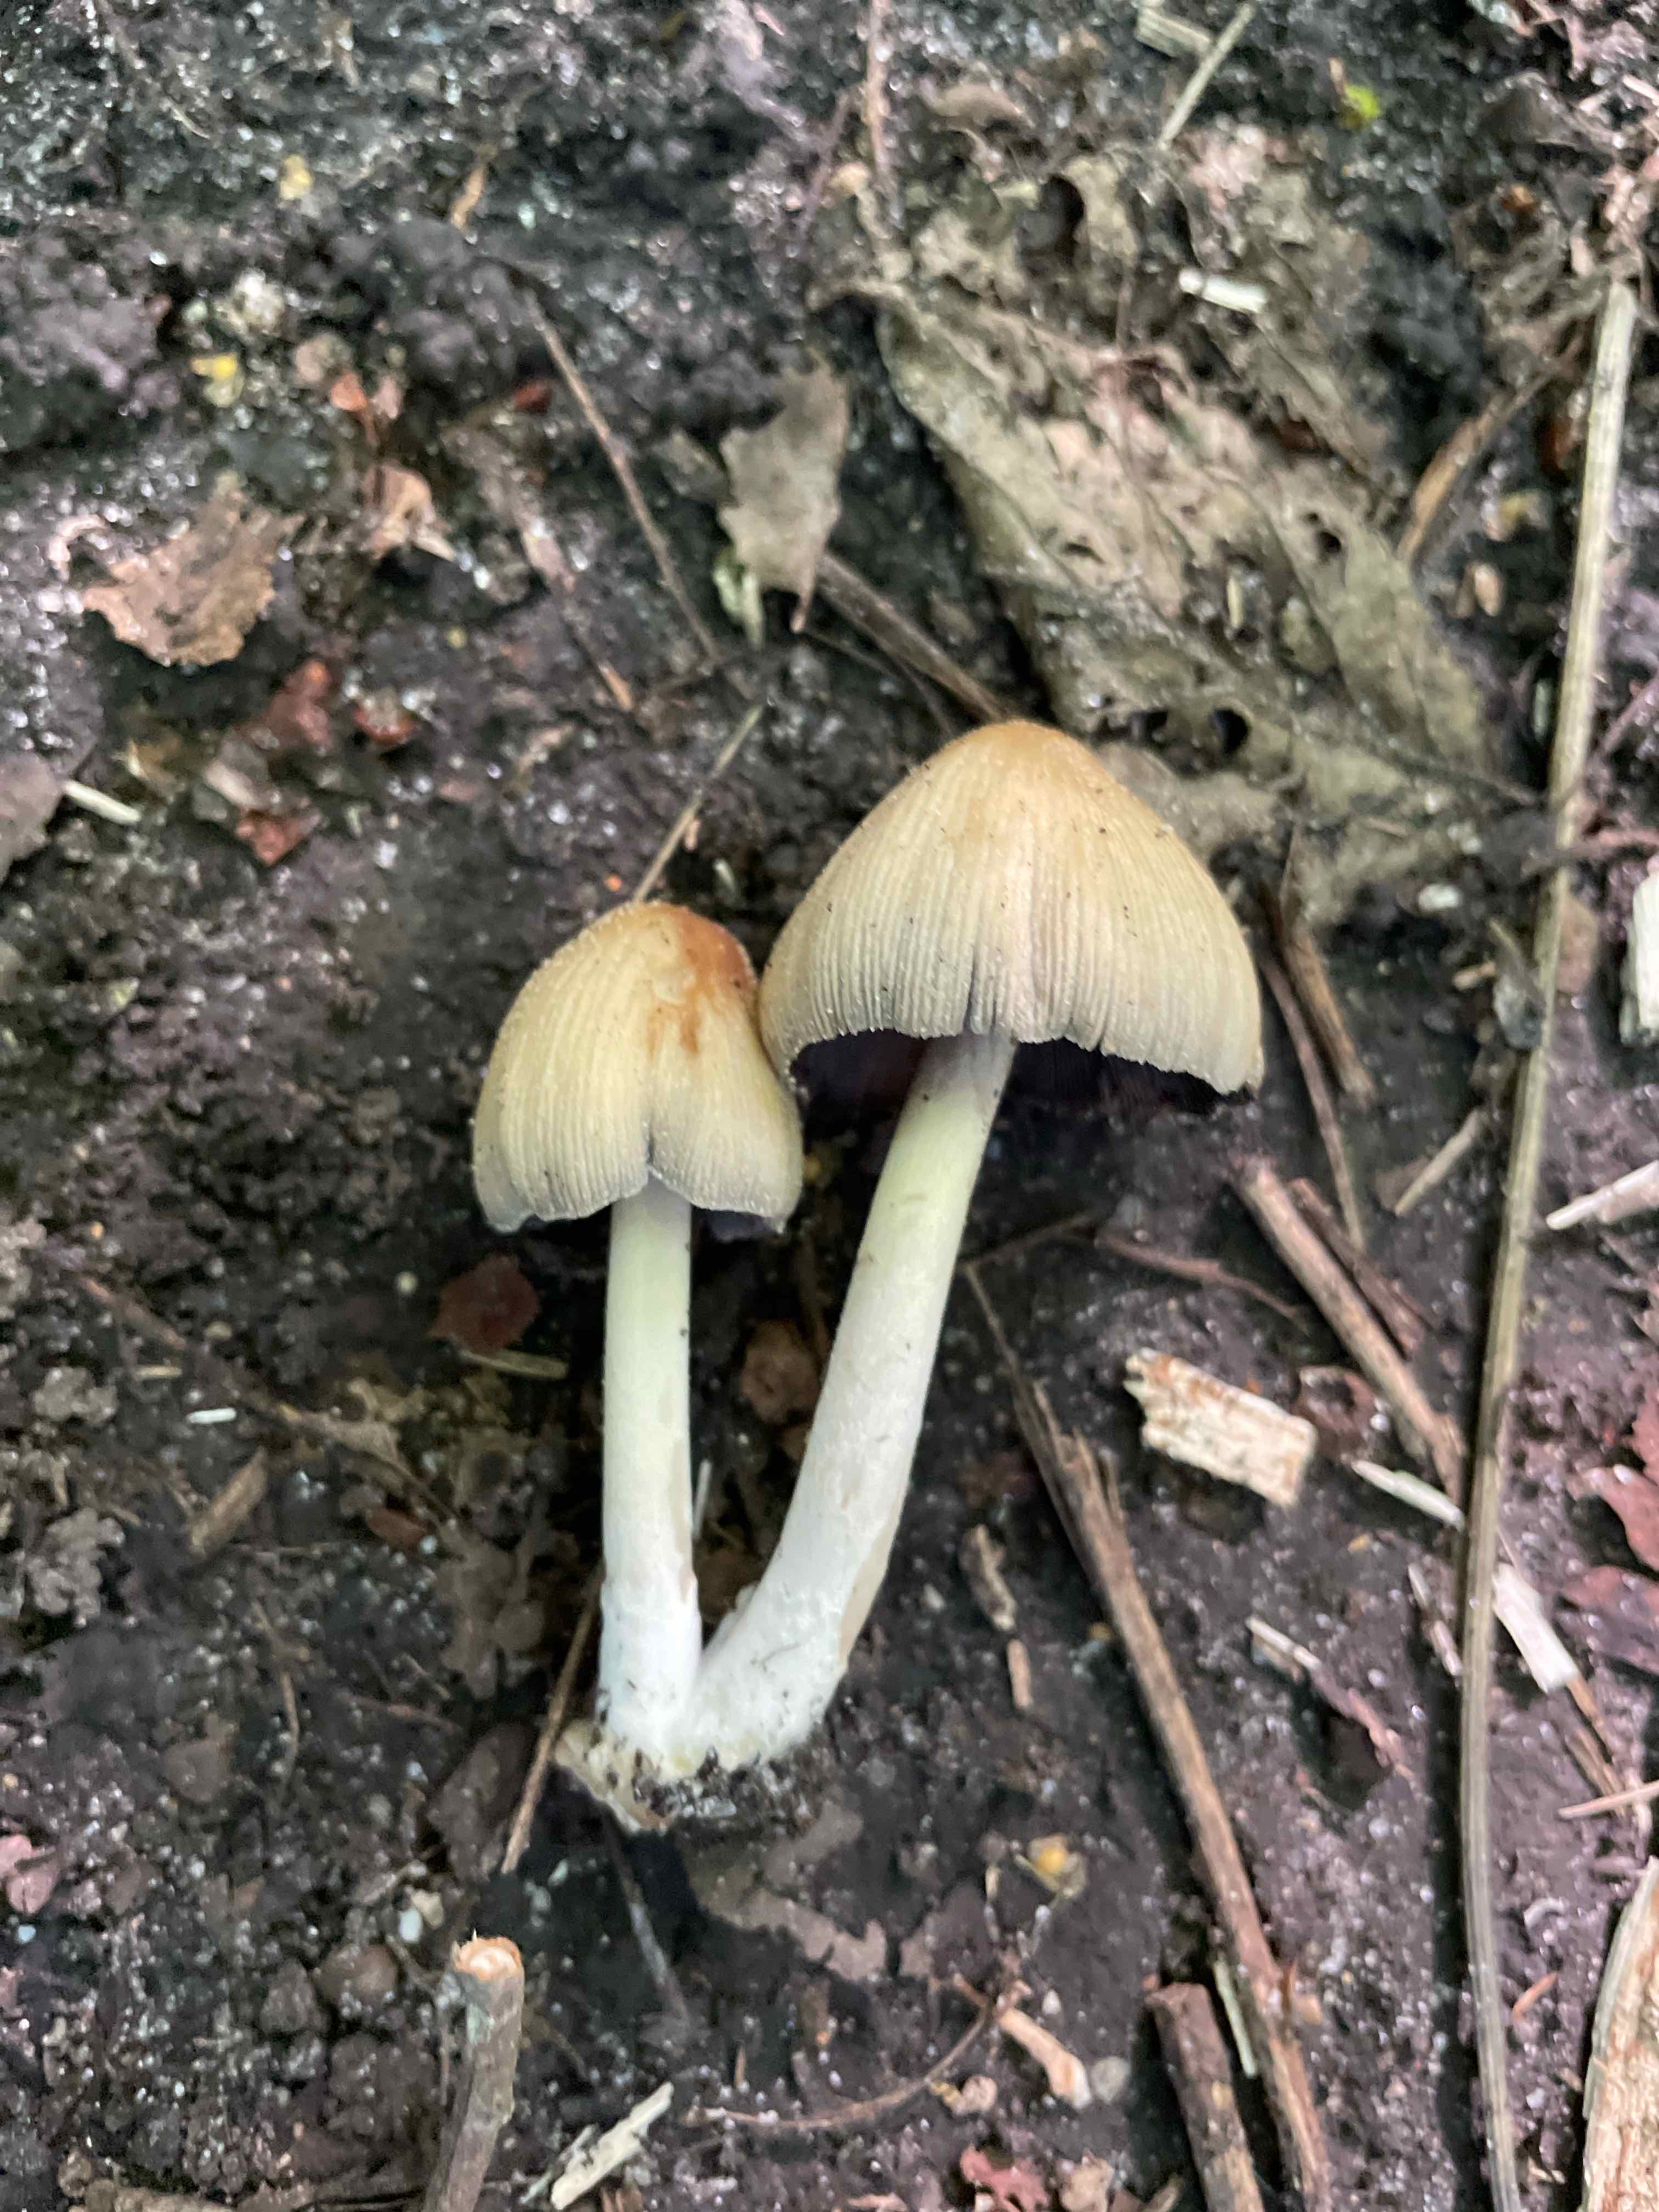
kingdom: Fungi
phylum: Basidiomycota
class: Agaricomycetes
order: Agaricales
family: Psathyrellaceae
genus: Coprinellus
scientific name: Coprinellus
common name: blækhat
